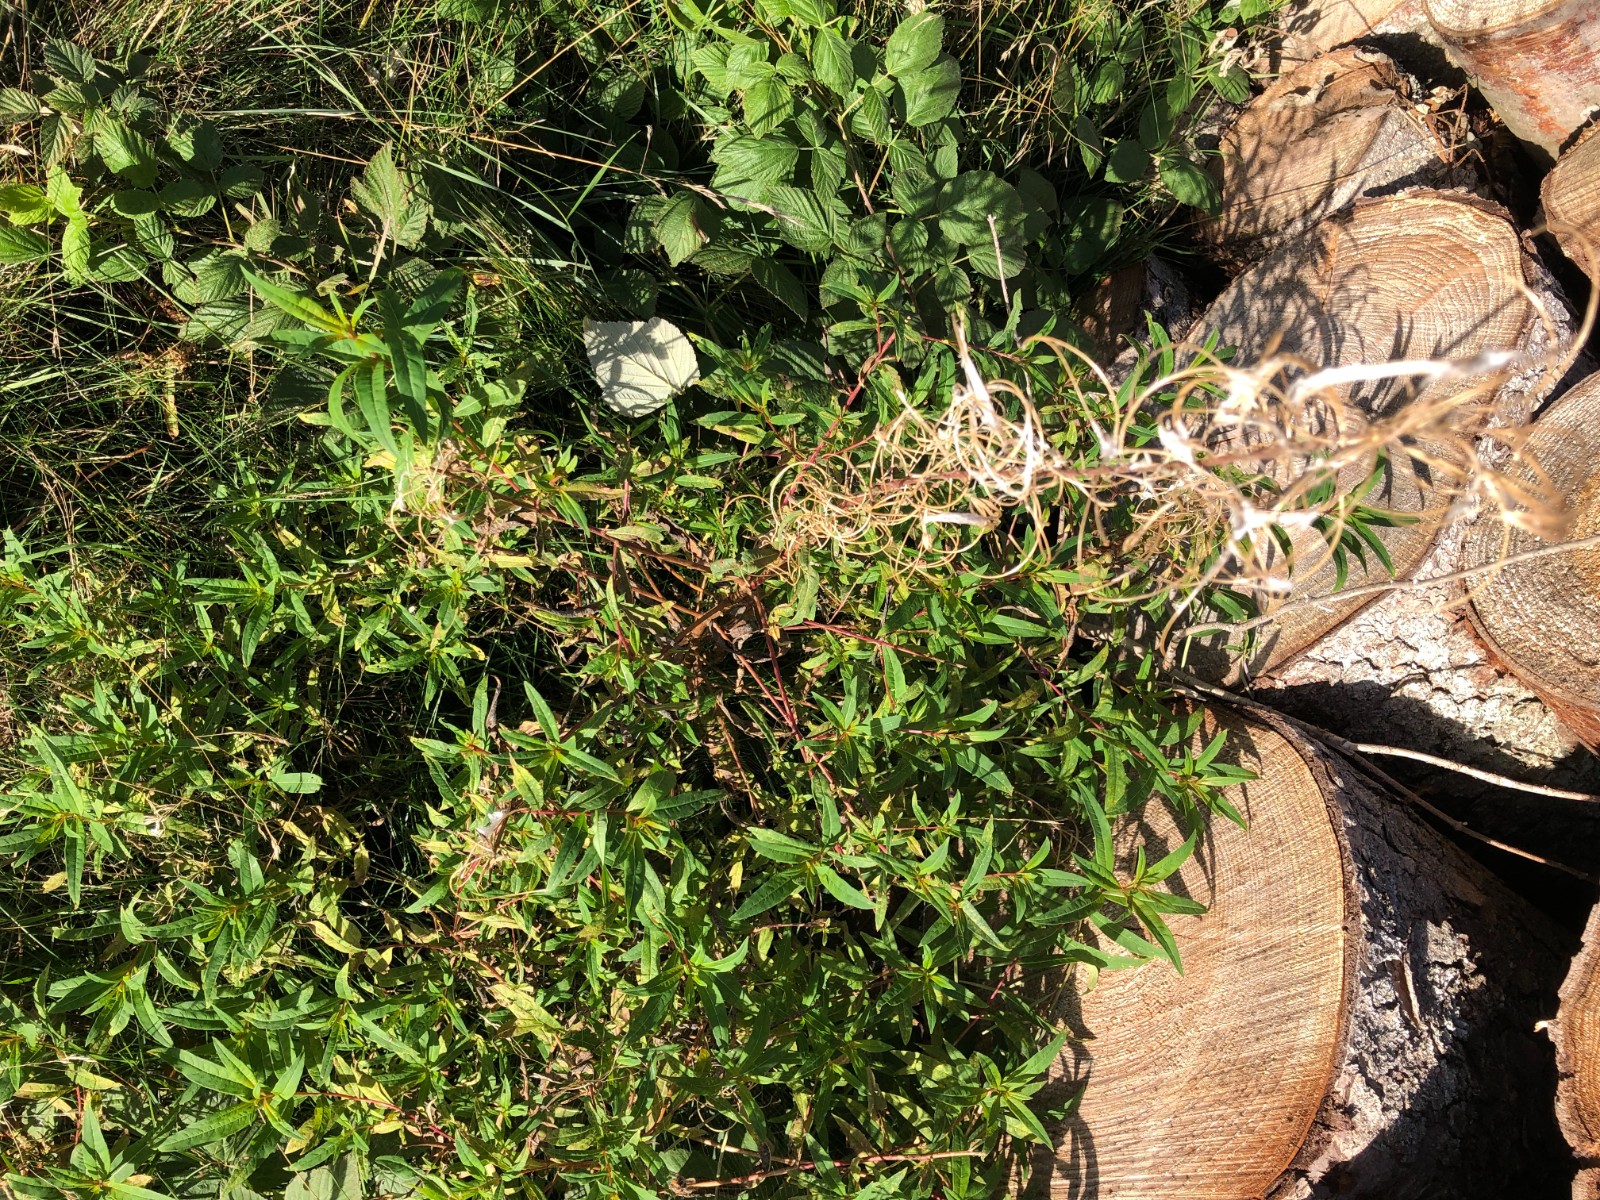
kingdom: Fungi
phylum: Basidiomycota
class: Pucciniomycetes
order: Pucciniales
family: Pucciniastraceae
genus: Pucciniastrum
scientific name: Pucciniastrum epilobii
